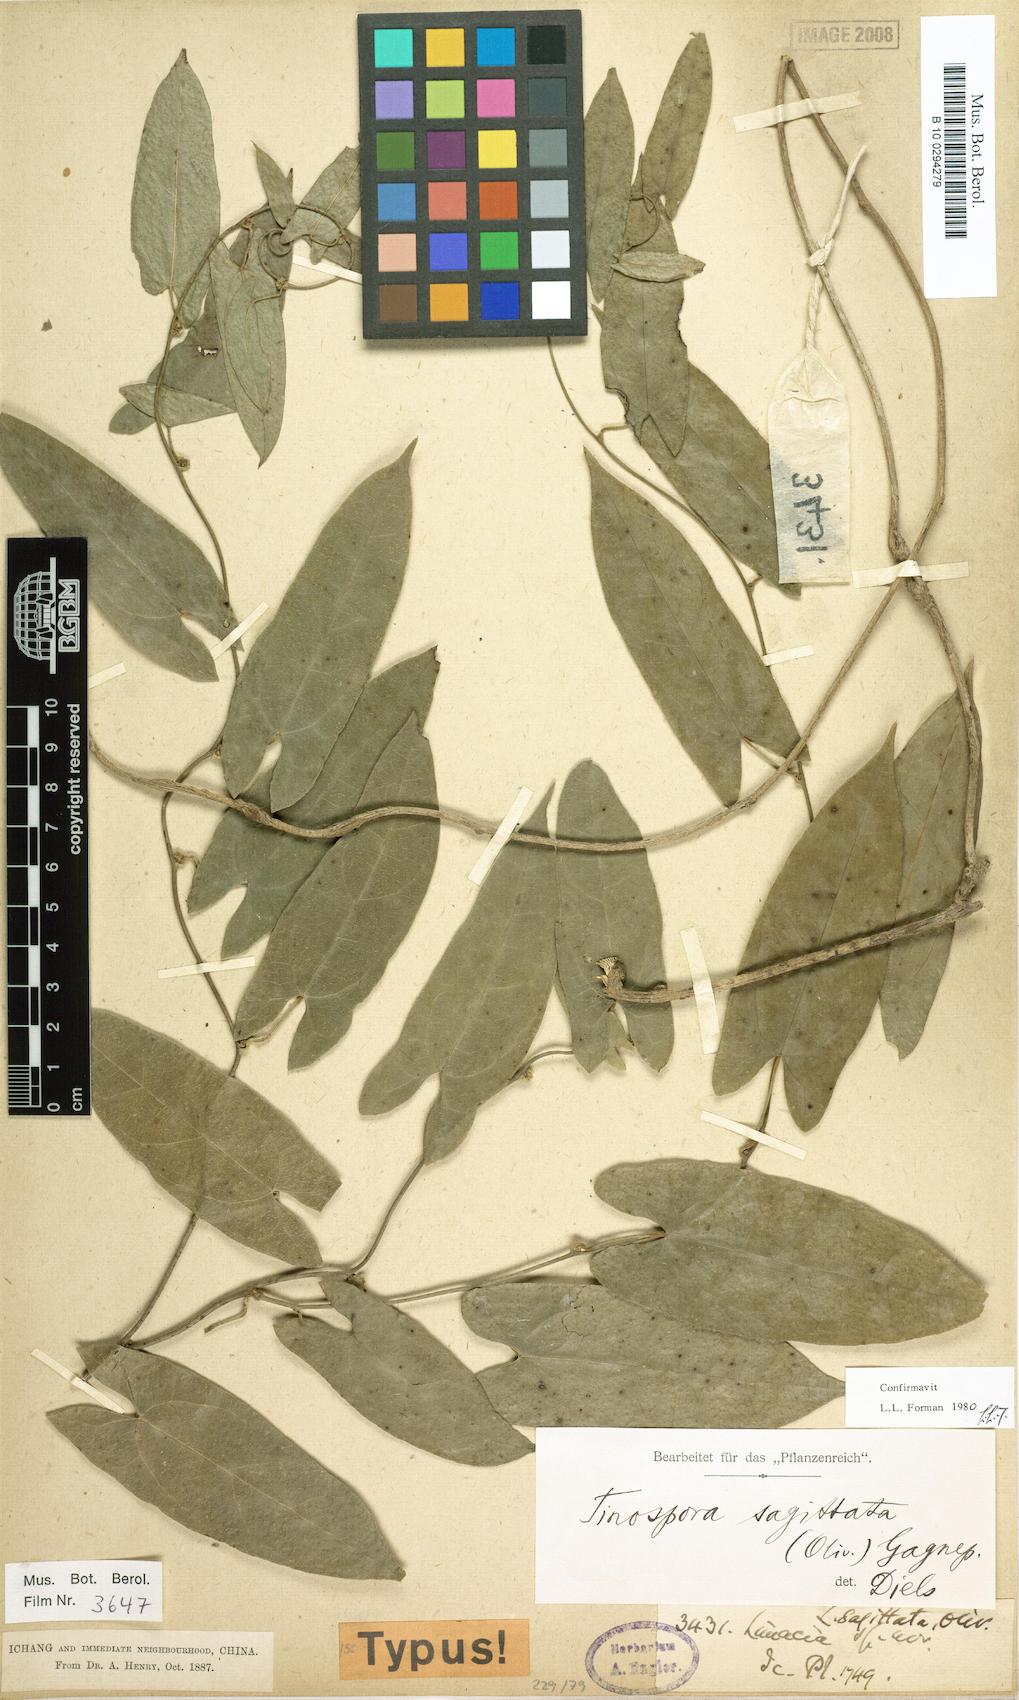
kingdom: Plantae
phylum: Tracheophyta
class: Magnoliopsida
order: Ranunculales
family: Menispermaceae
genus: Paratinospora
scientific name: Paratinospora sagittata
